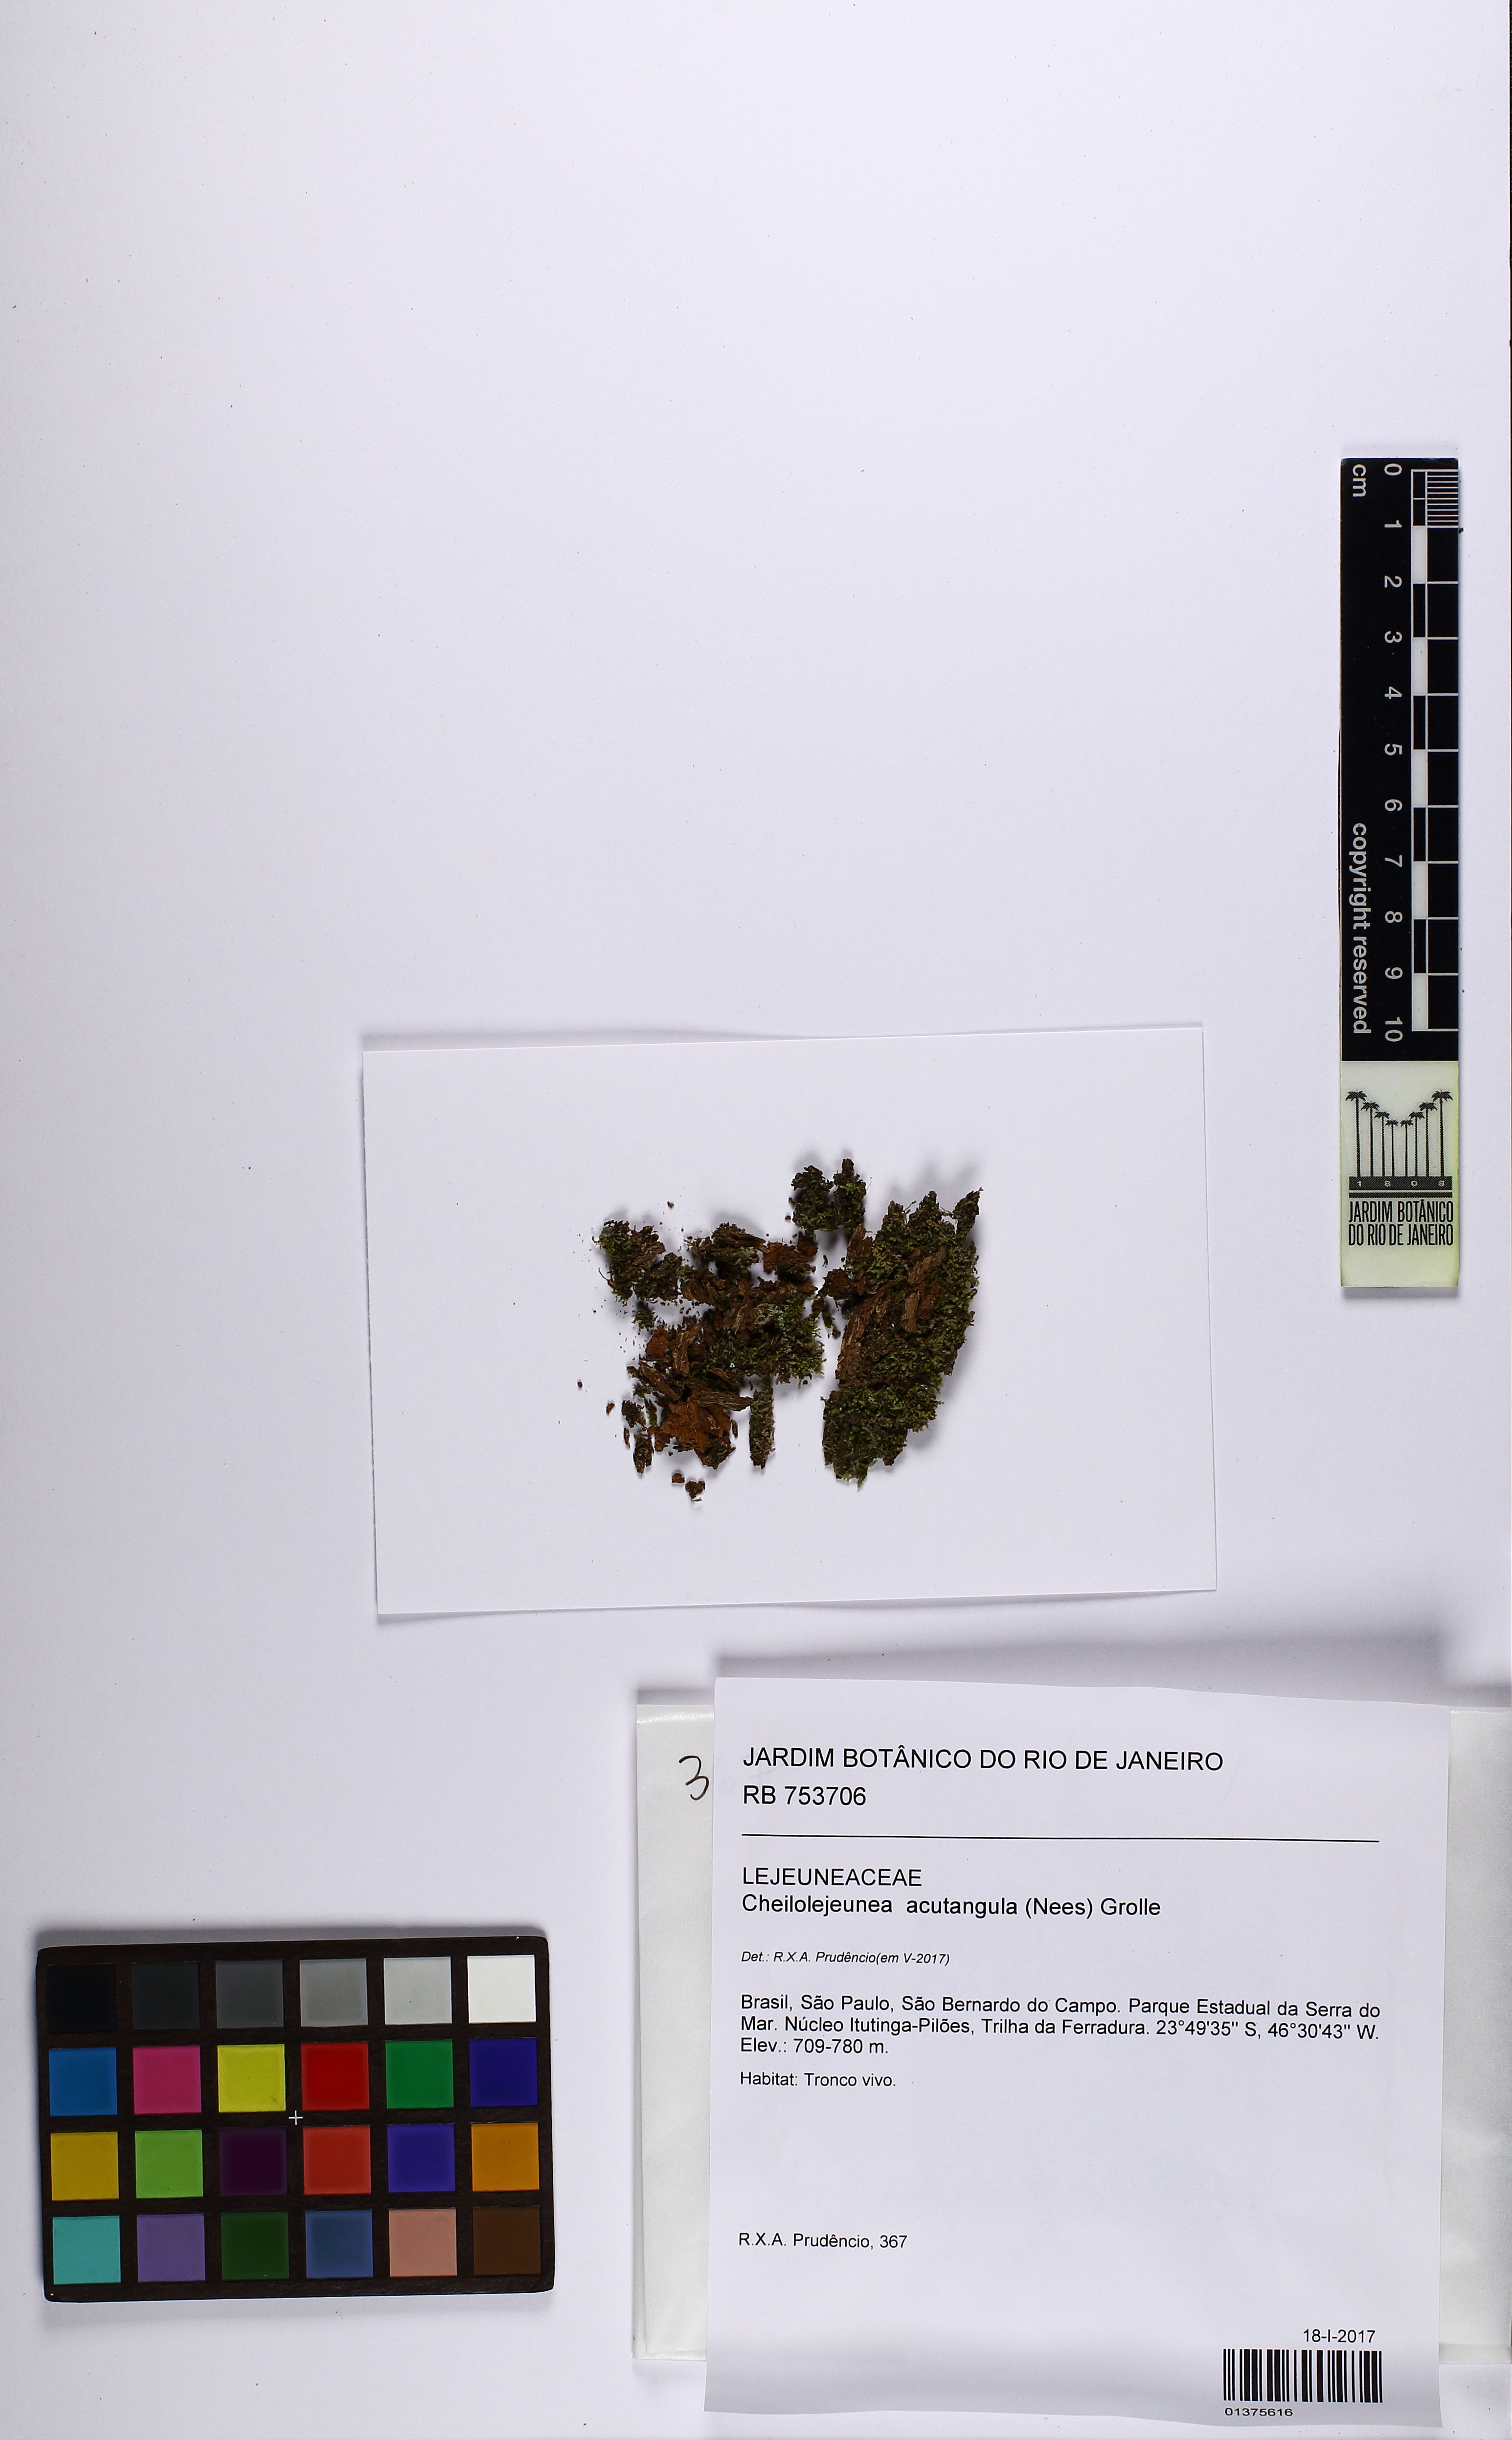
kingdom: Plantae
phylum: Marchantiophyta
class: Jungermanniopsida
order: Porellales
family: Lejeuneaceae
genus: Cheilolejeunea
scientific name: Cheilolejeunea acutangula
